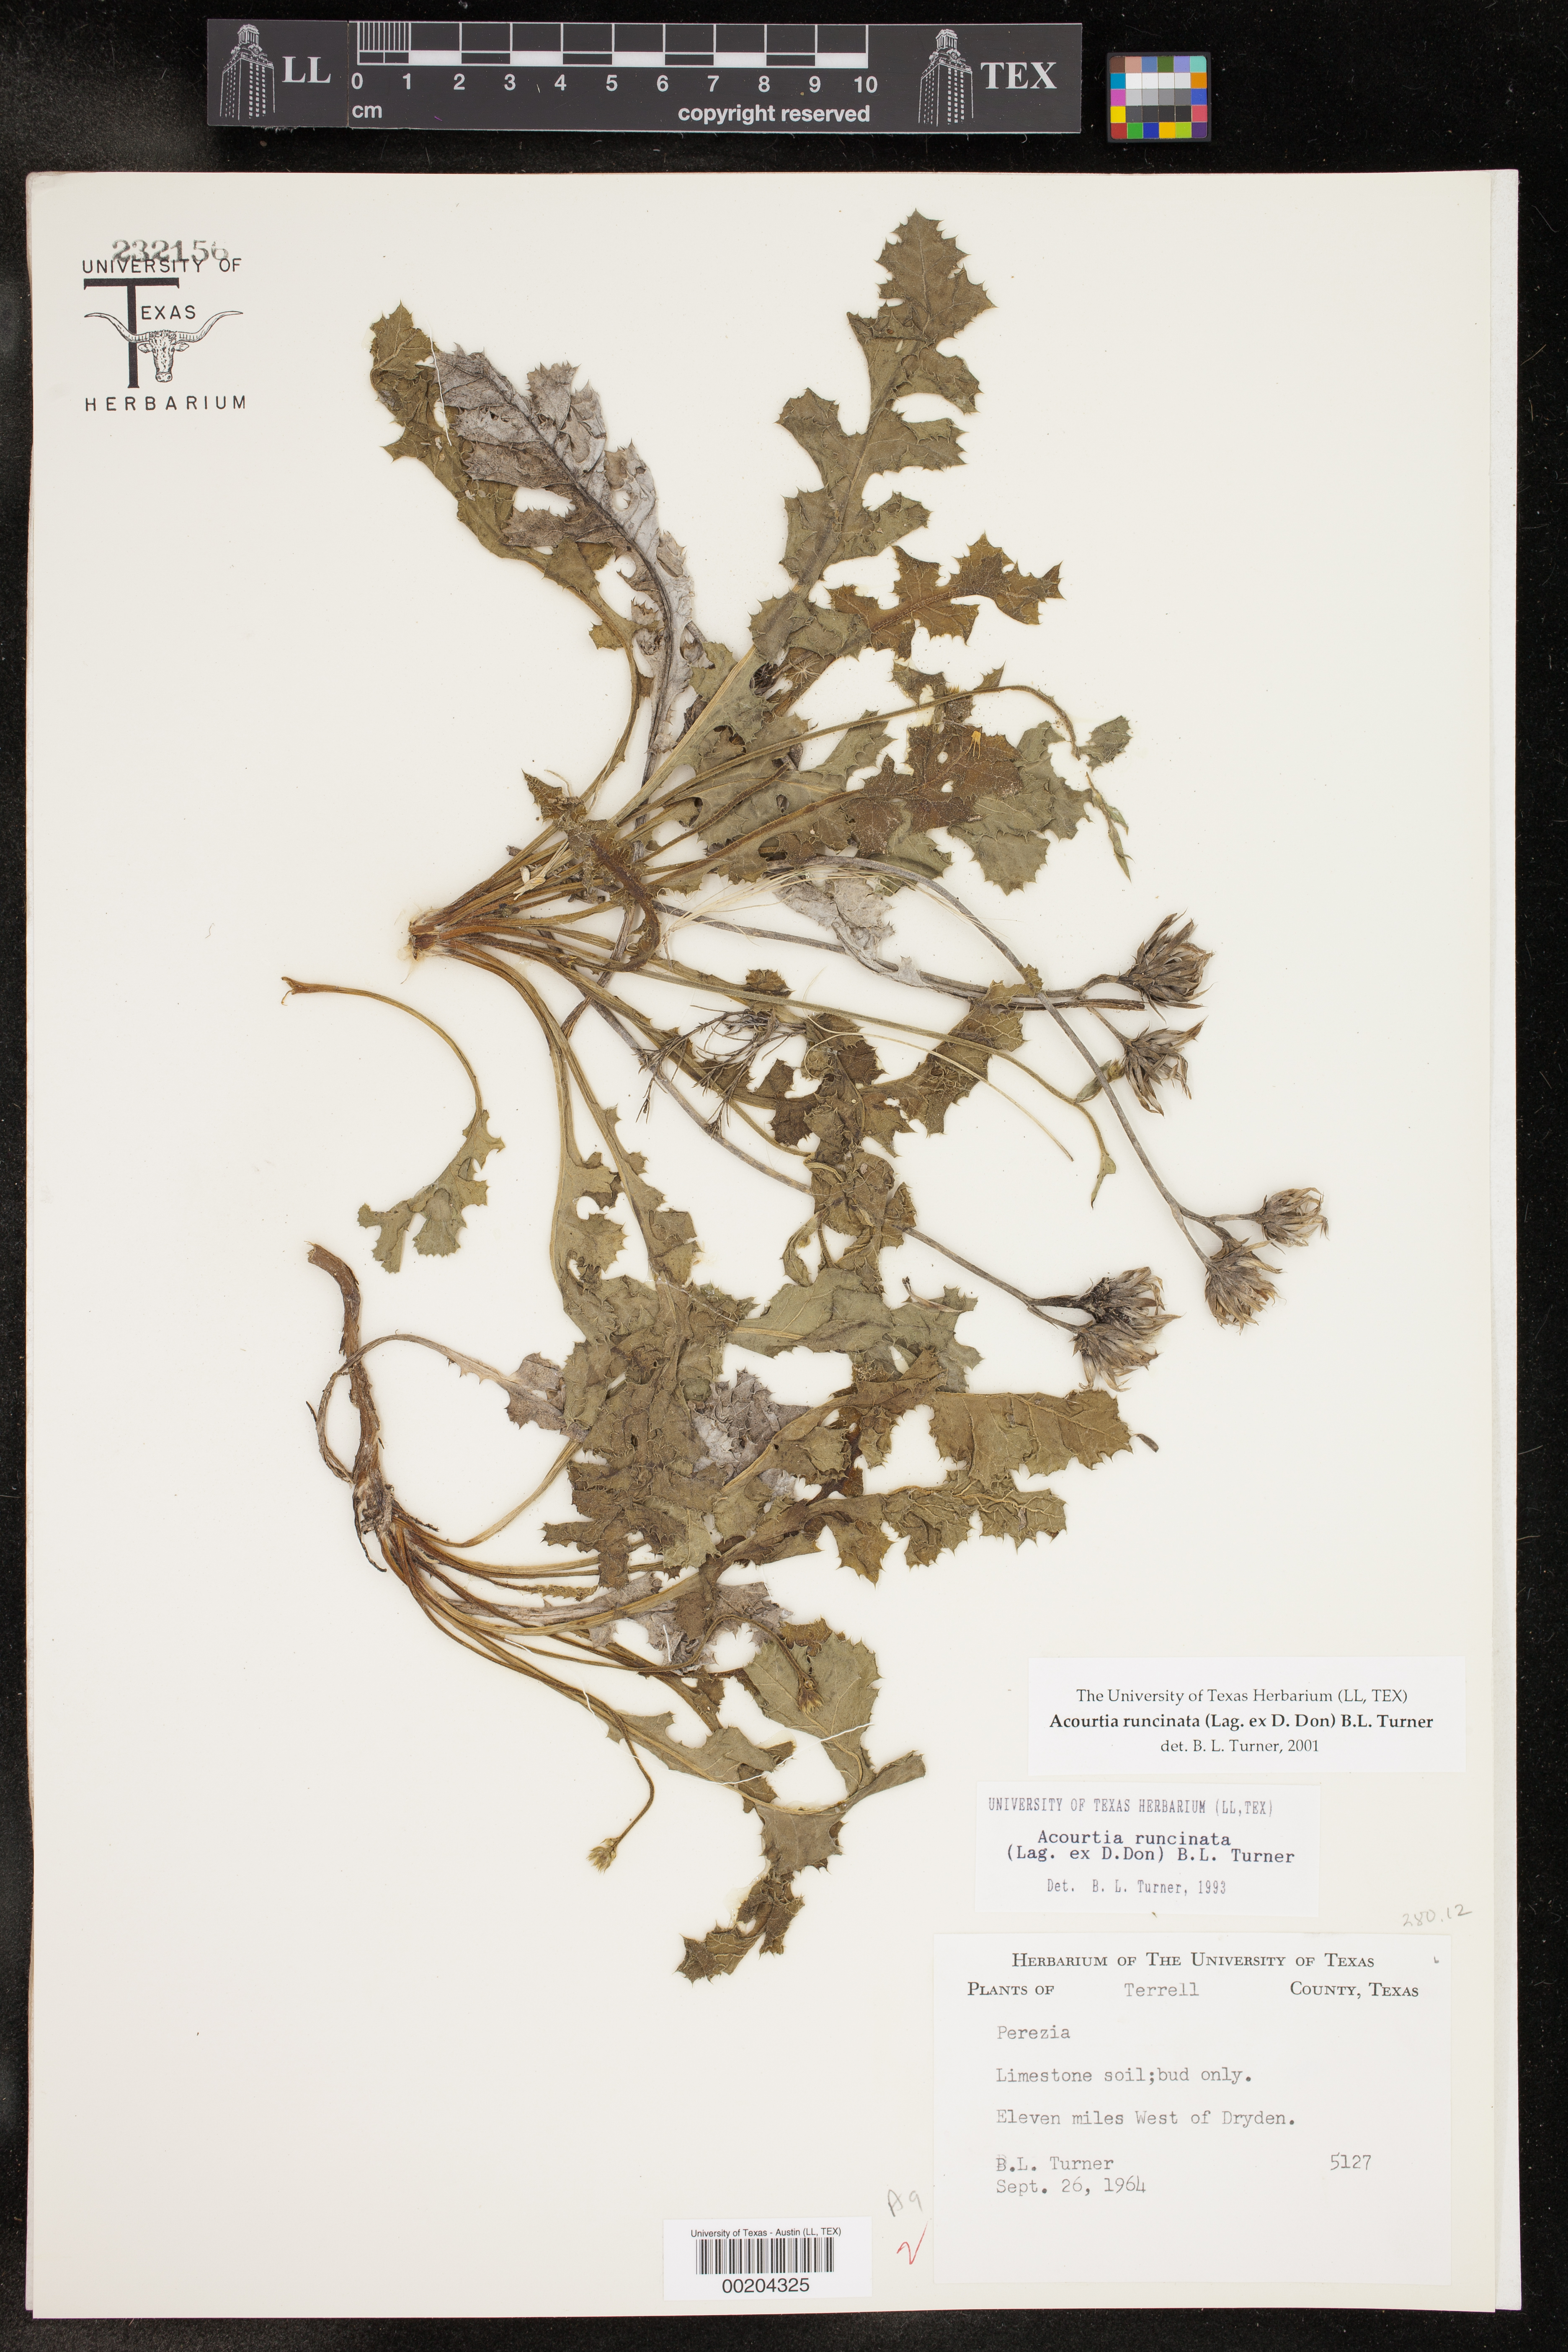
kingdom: Plantae
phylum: Tracheophyta
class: Magnoliopsida
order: Asterales
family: Asteraceae
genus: Acourtia
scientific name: Acourtia runcinata
